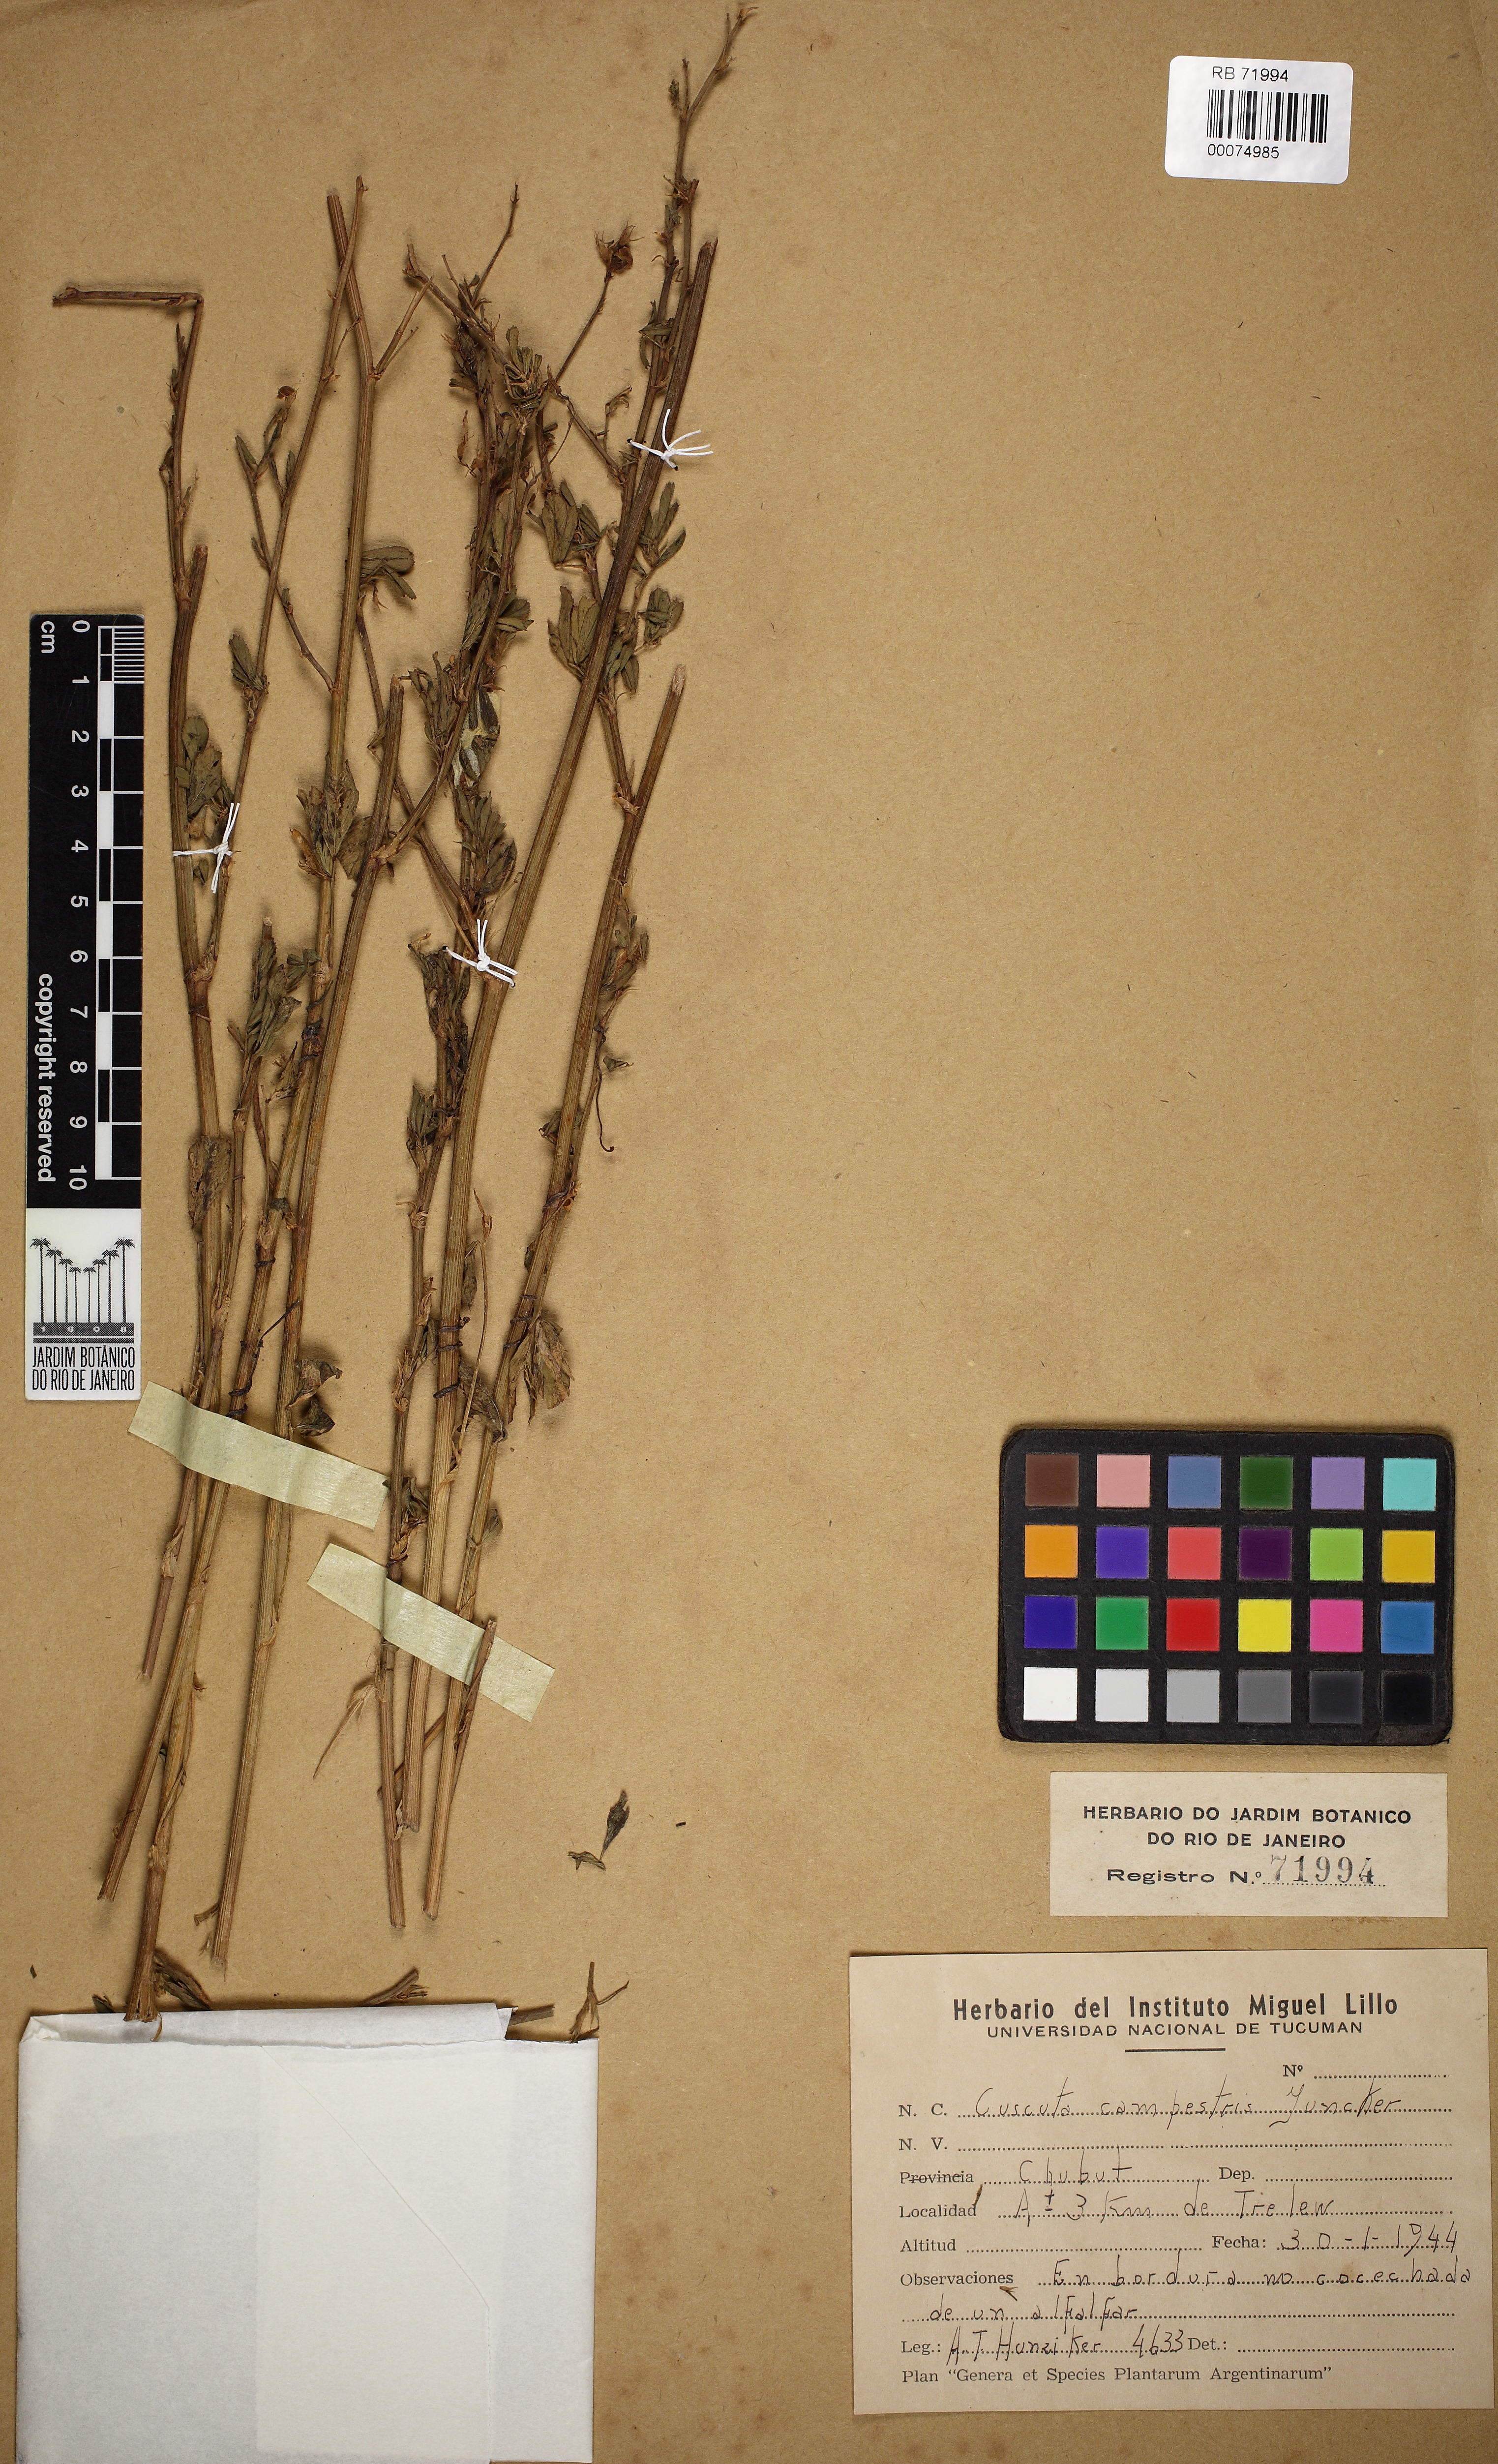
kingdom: Plantae
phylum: Tracheophyta
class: Magnoliopsida
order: Solanales
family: Convolvulaceae
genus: Cuscuta
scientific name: Cuscuta campestris
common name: Yellow dodder
